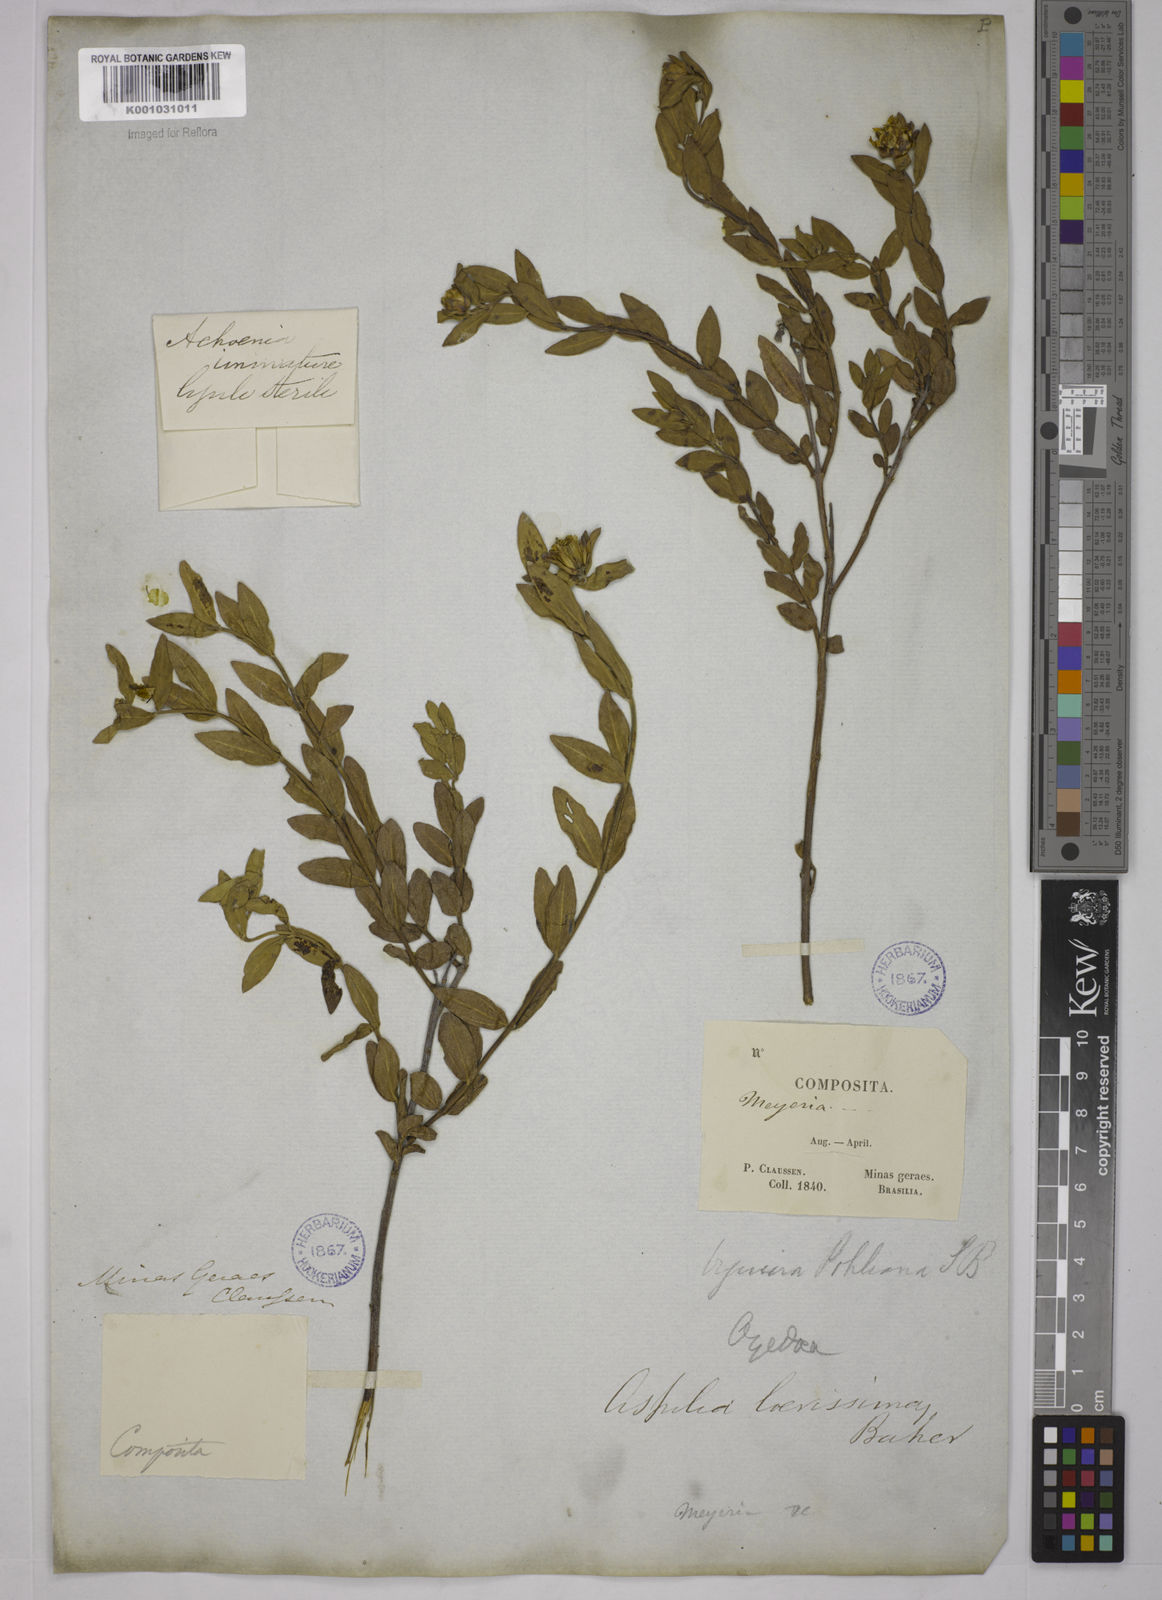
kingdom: Plantae
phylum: Tracheophyta
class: Magnoliopsida
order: Asterales
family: Asteraceae
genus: Wedelia
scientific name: Wedelia laevissima
